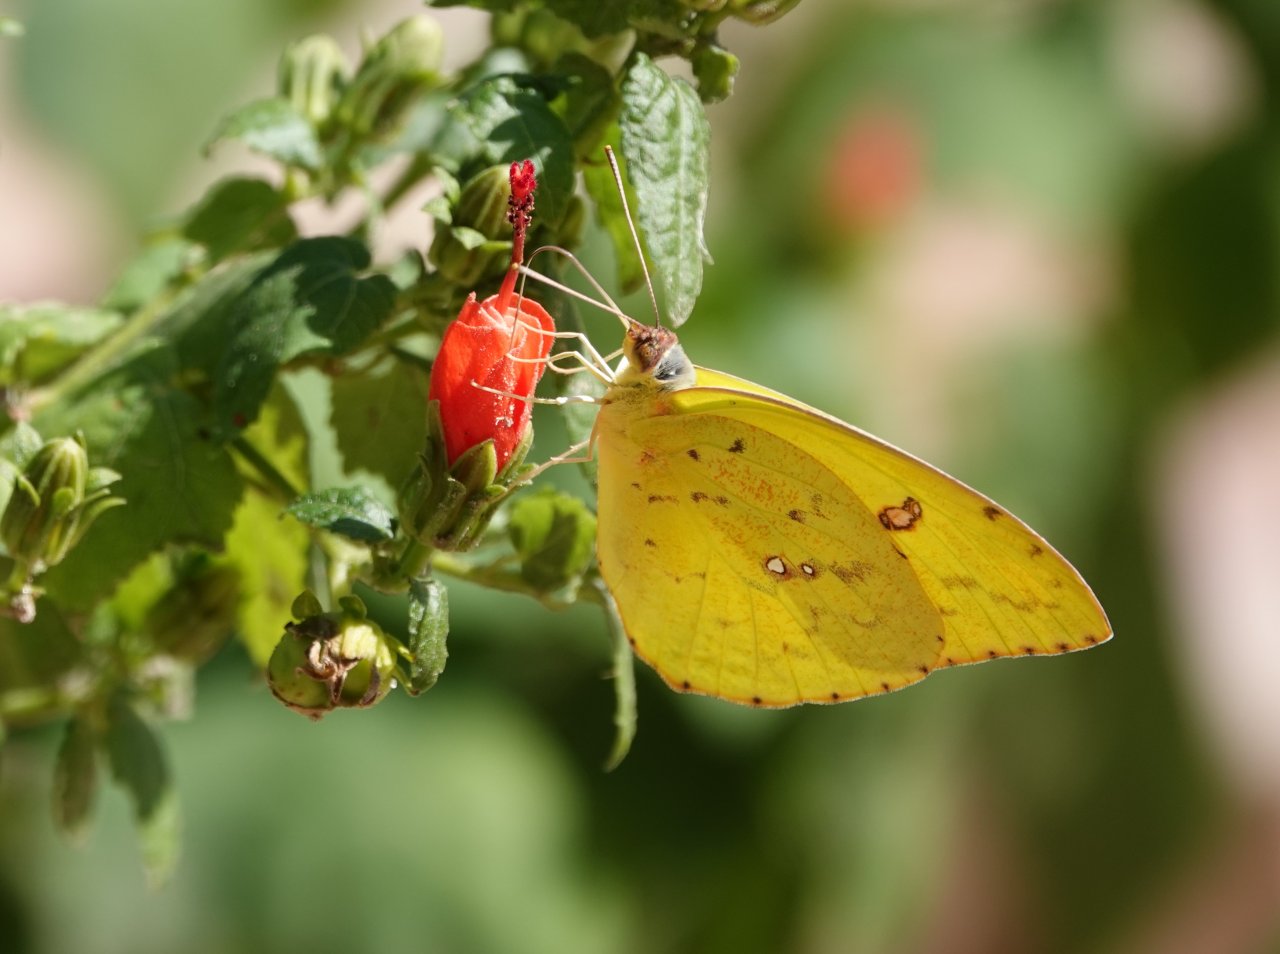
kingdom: Animalia
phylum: Arthropoda
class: Insecta
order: Lepidoptera
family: Pieridae
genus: Phoebis
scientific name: Phoebis sennae
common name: Cloudless Sulphur
